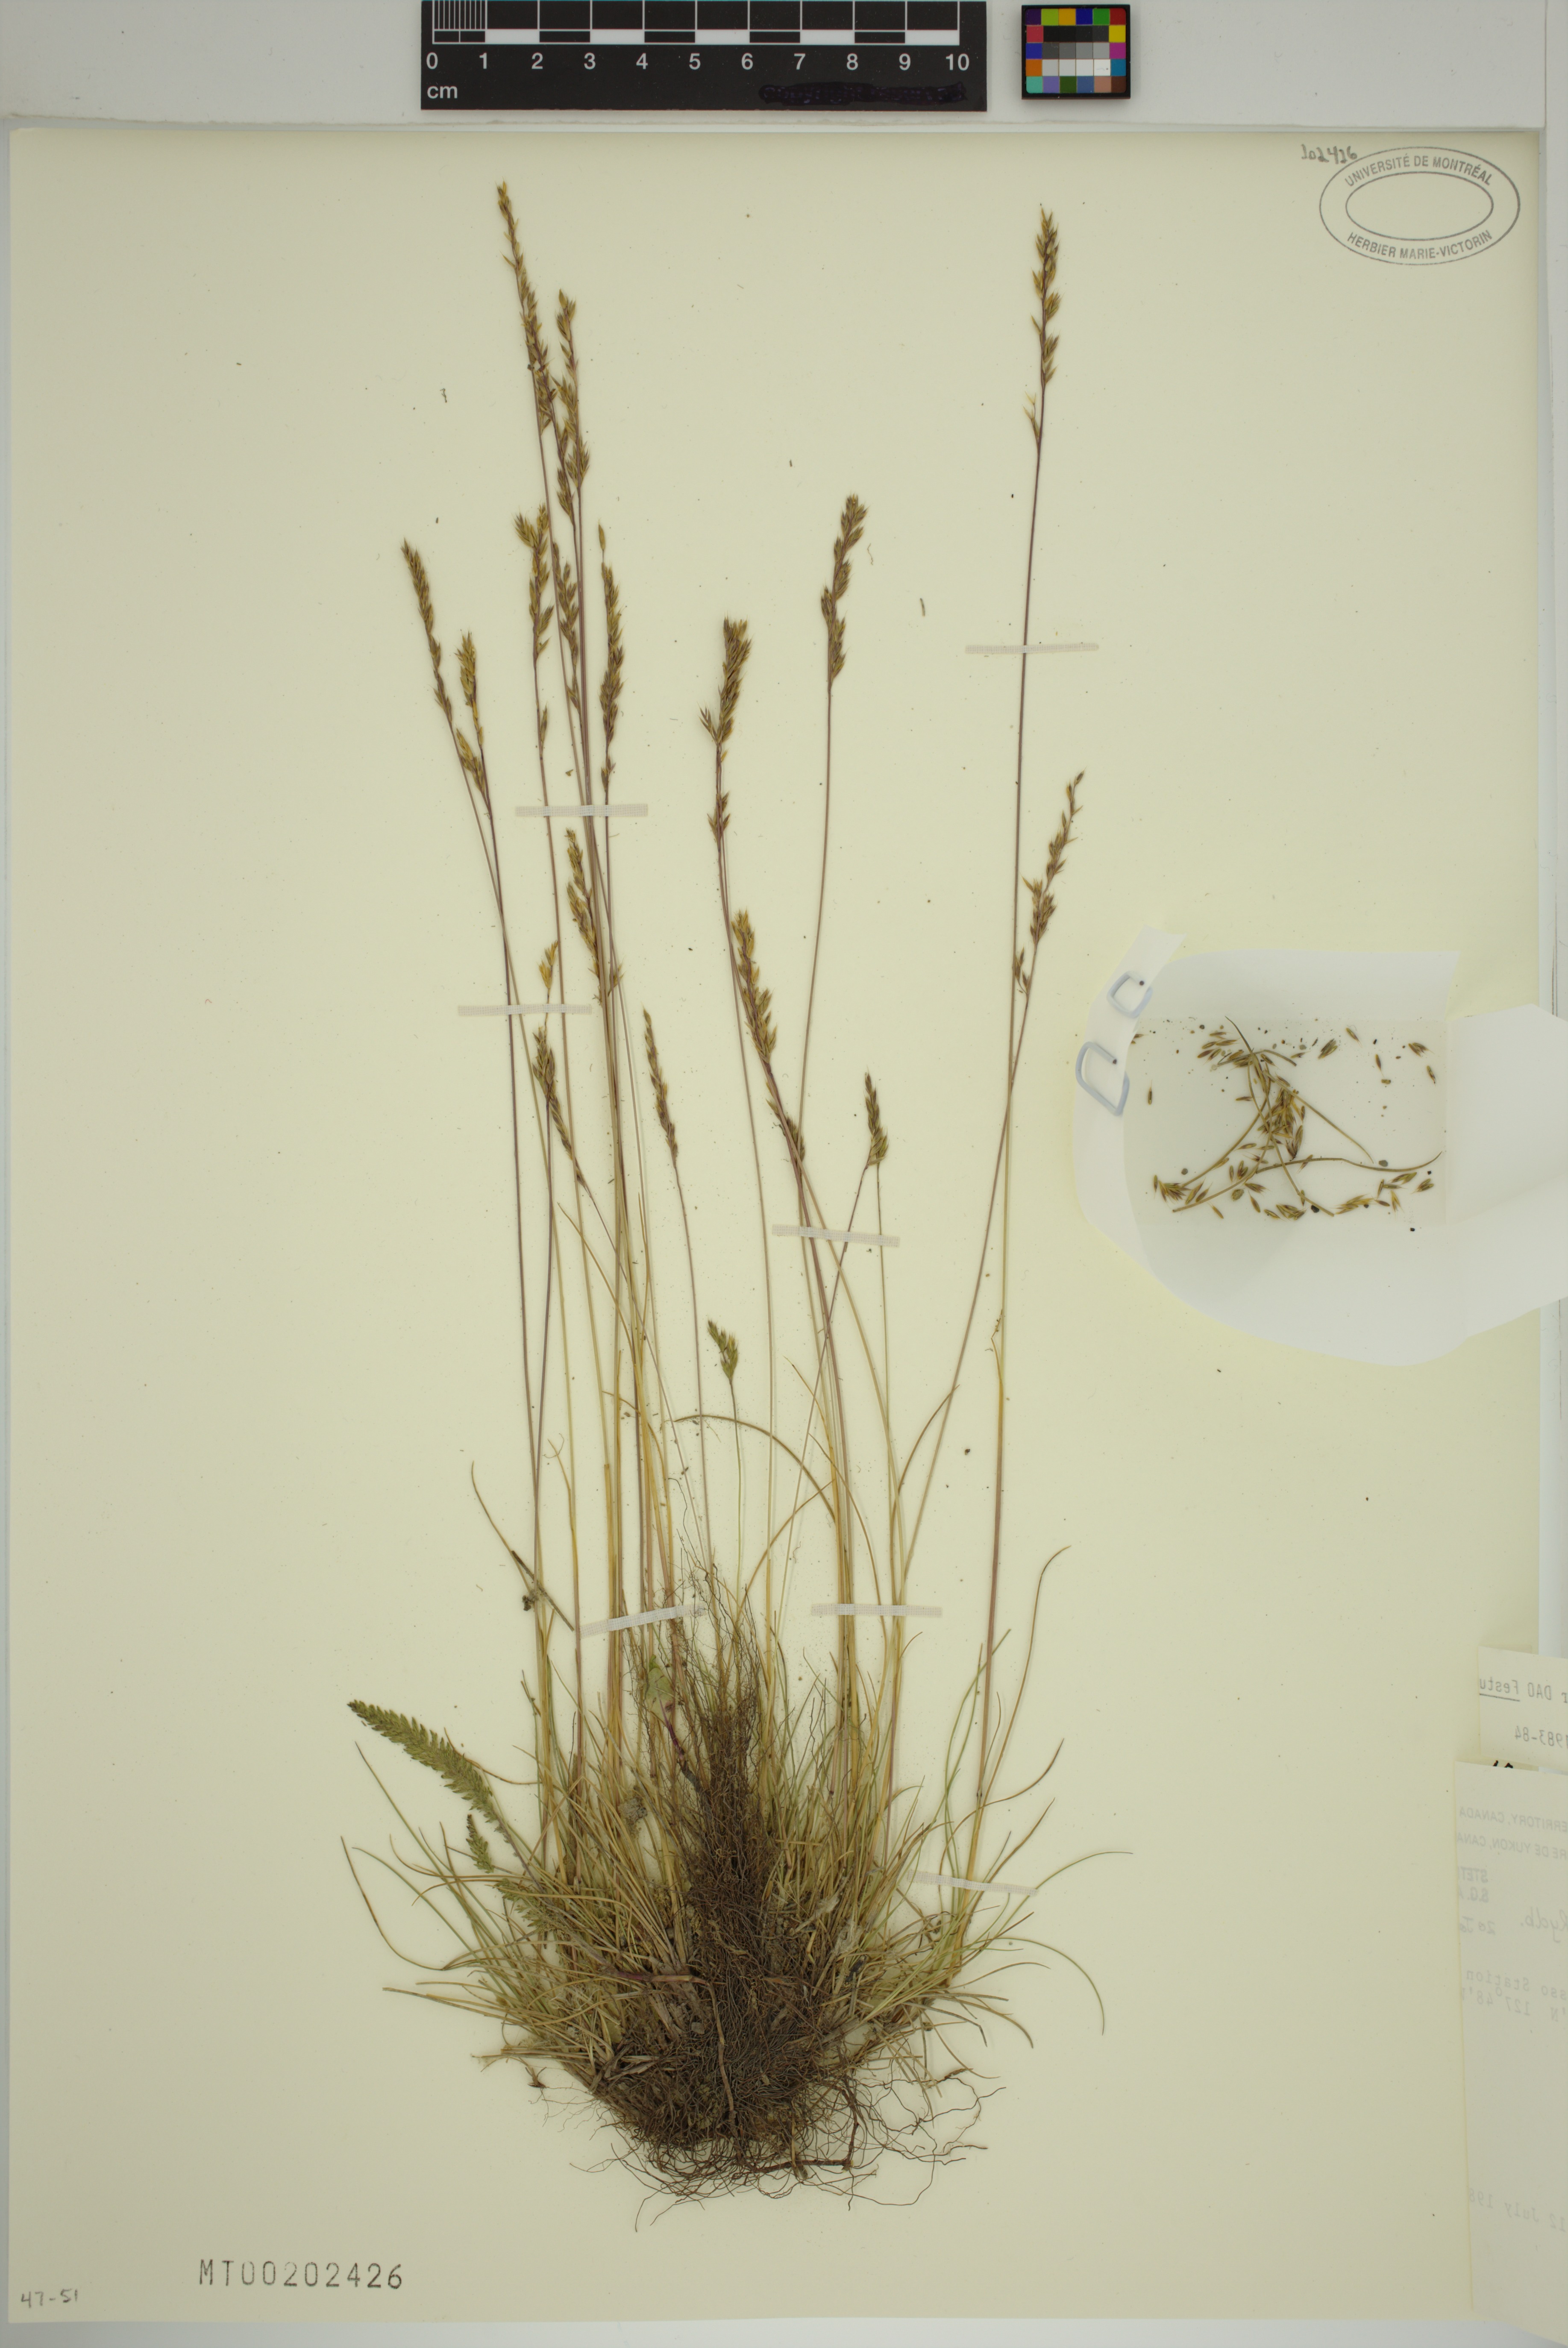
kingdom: Plantae
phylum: Tracheophyta
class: Liliopsida
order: Poales
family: Poaceae
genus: Festuca
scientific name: Festuca saximontana
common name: Mountain fescue
